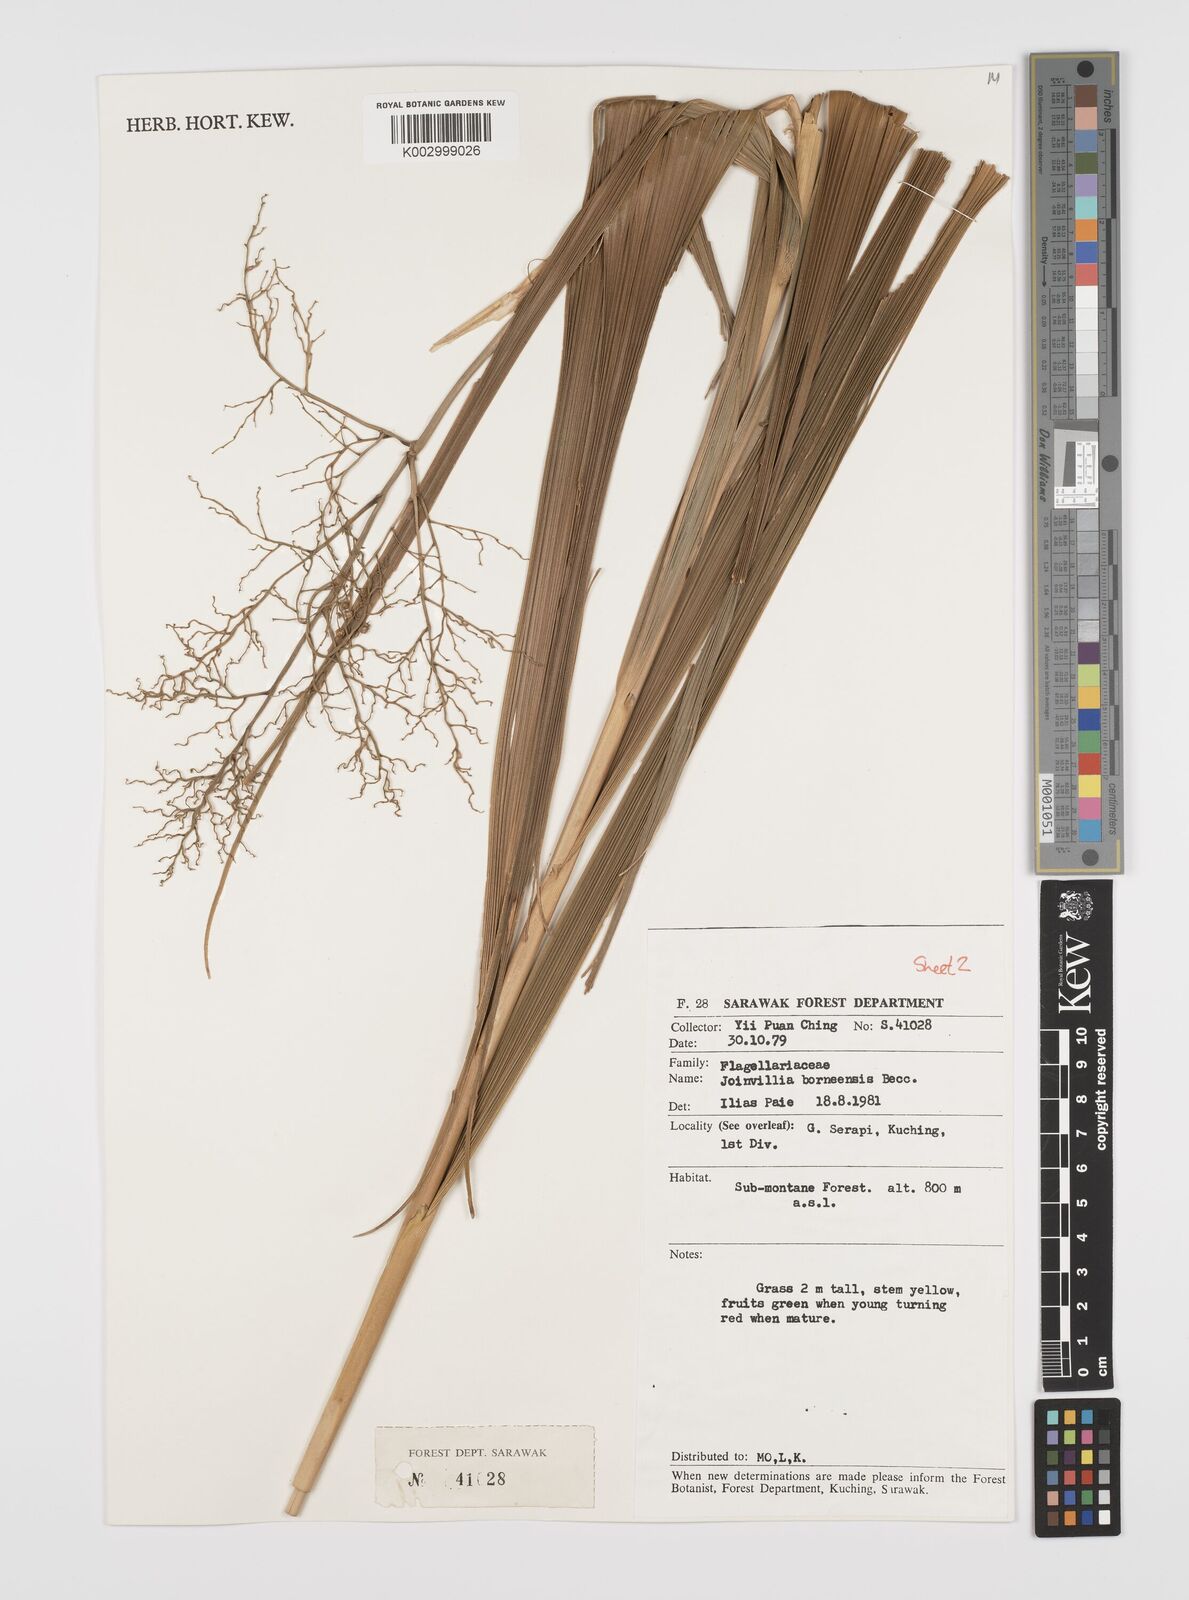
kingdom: Plantae
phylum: Tracheophyta
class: Liliopsida
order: Poales
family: Joinvilleaceae
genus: Joinvillea
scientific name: Joinvillea borneensis
